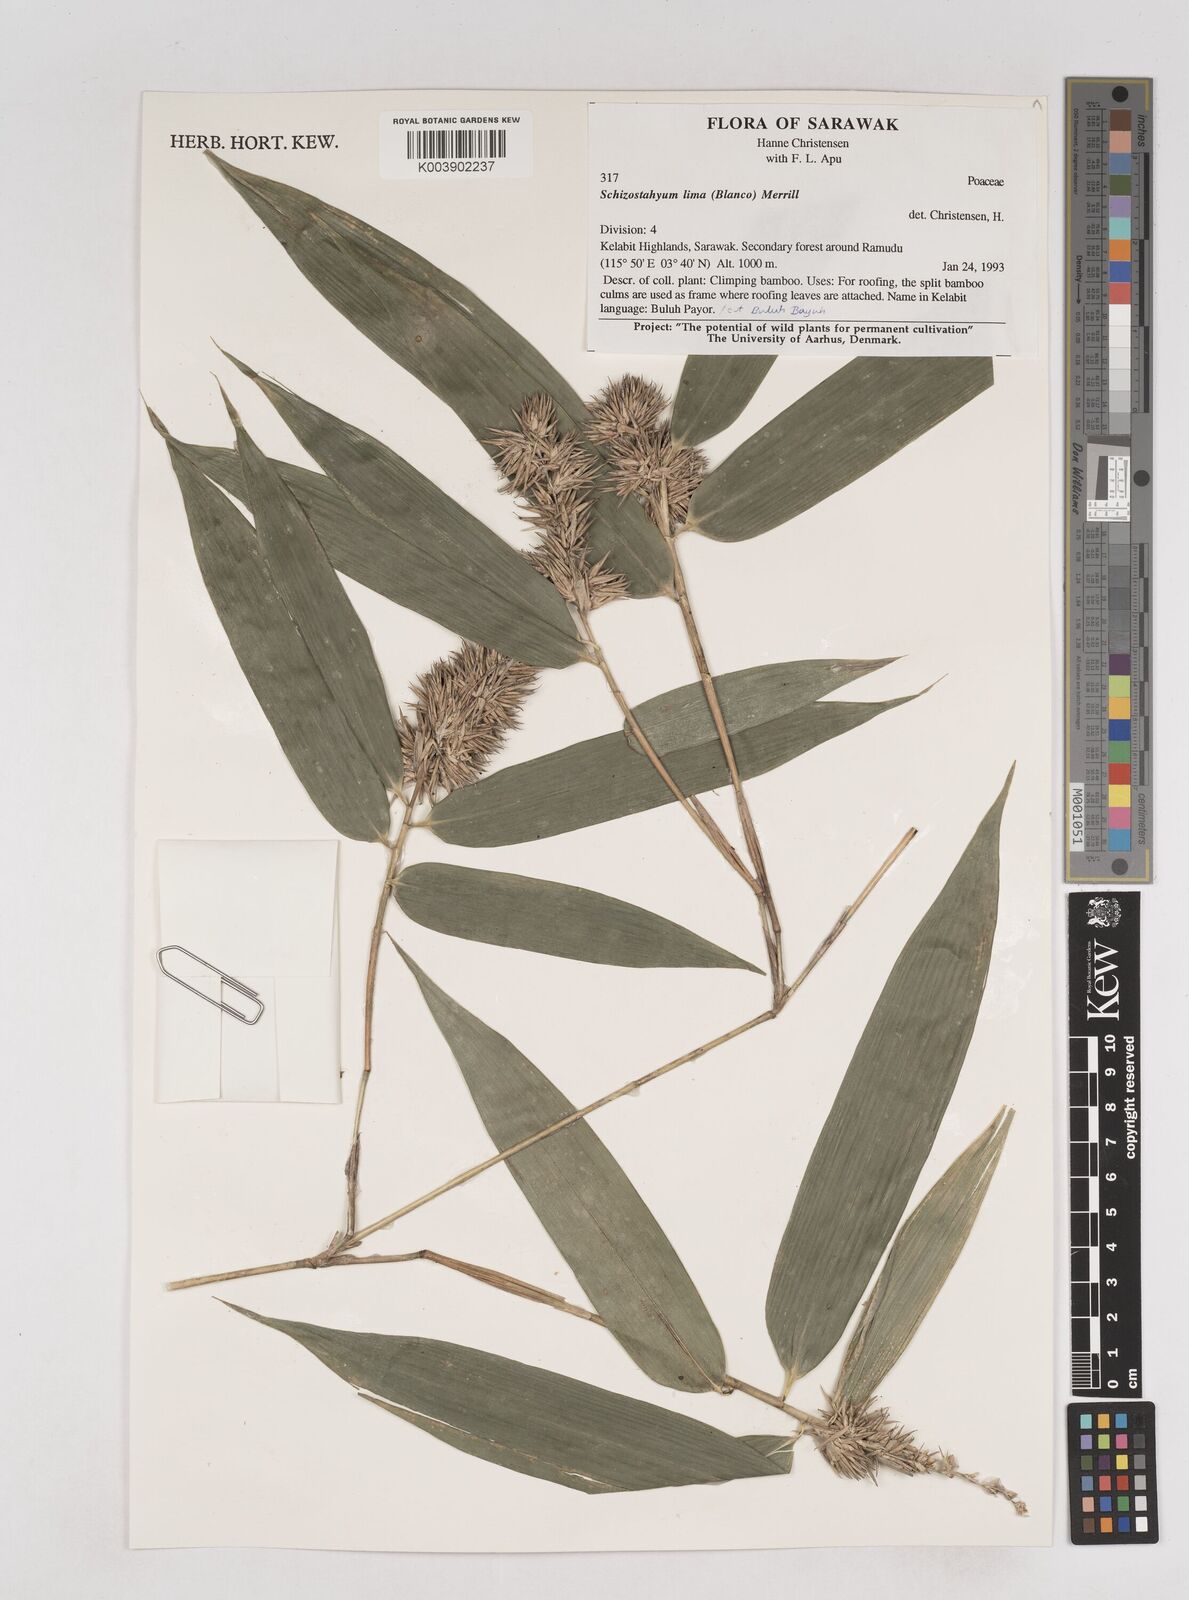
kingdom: Plantae
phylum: Tracheophyta
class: Liliopsida
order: Poales
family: Poaceae
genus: Schizostachyum
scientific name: Schizostachyum lima
